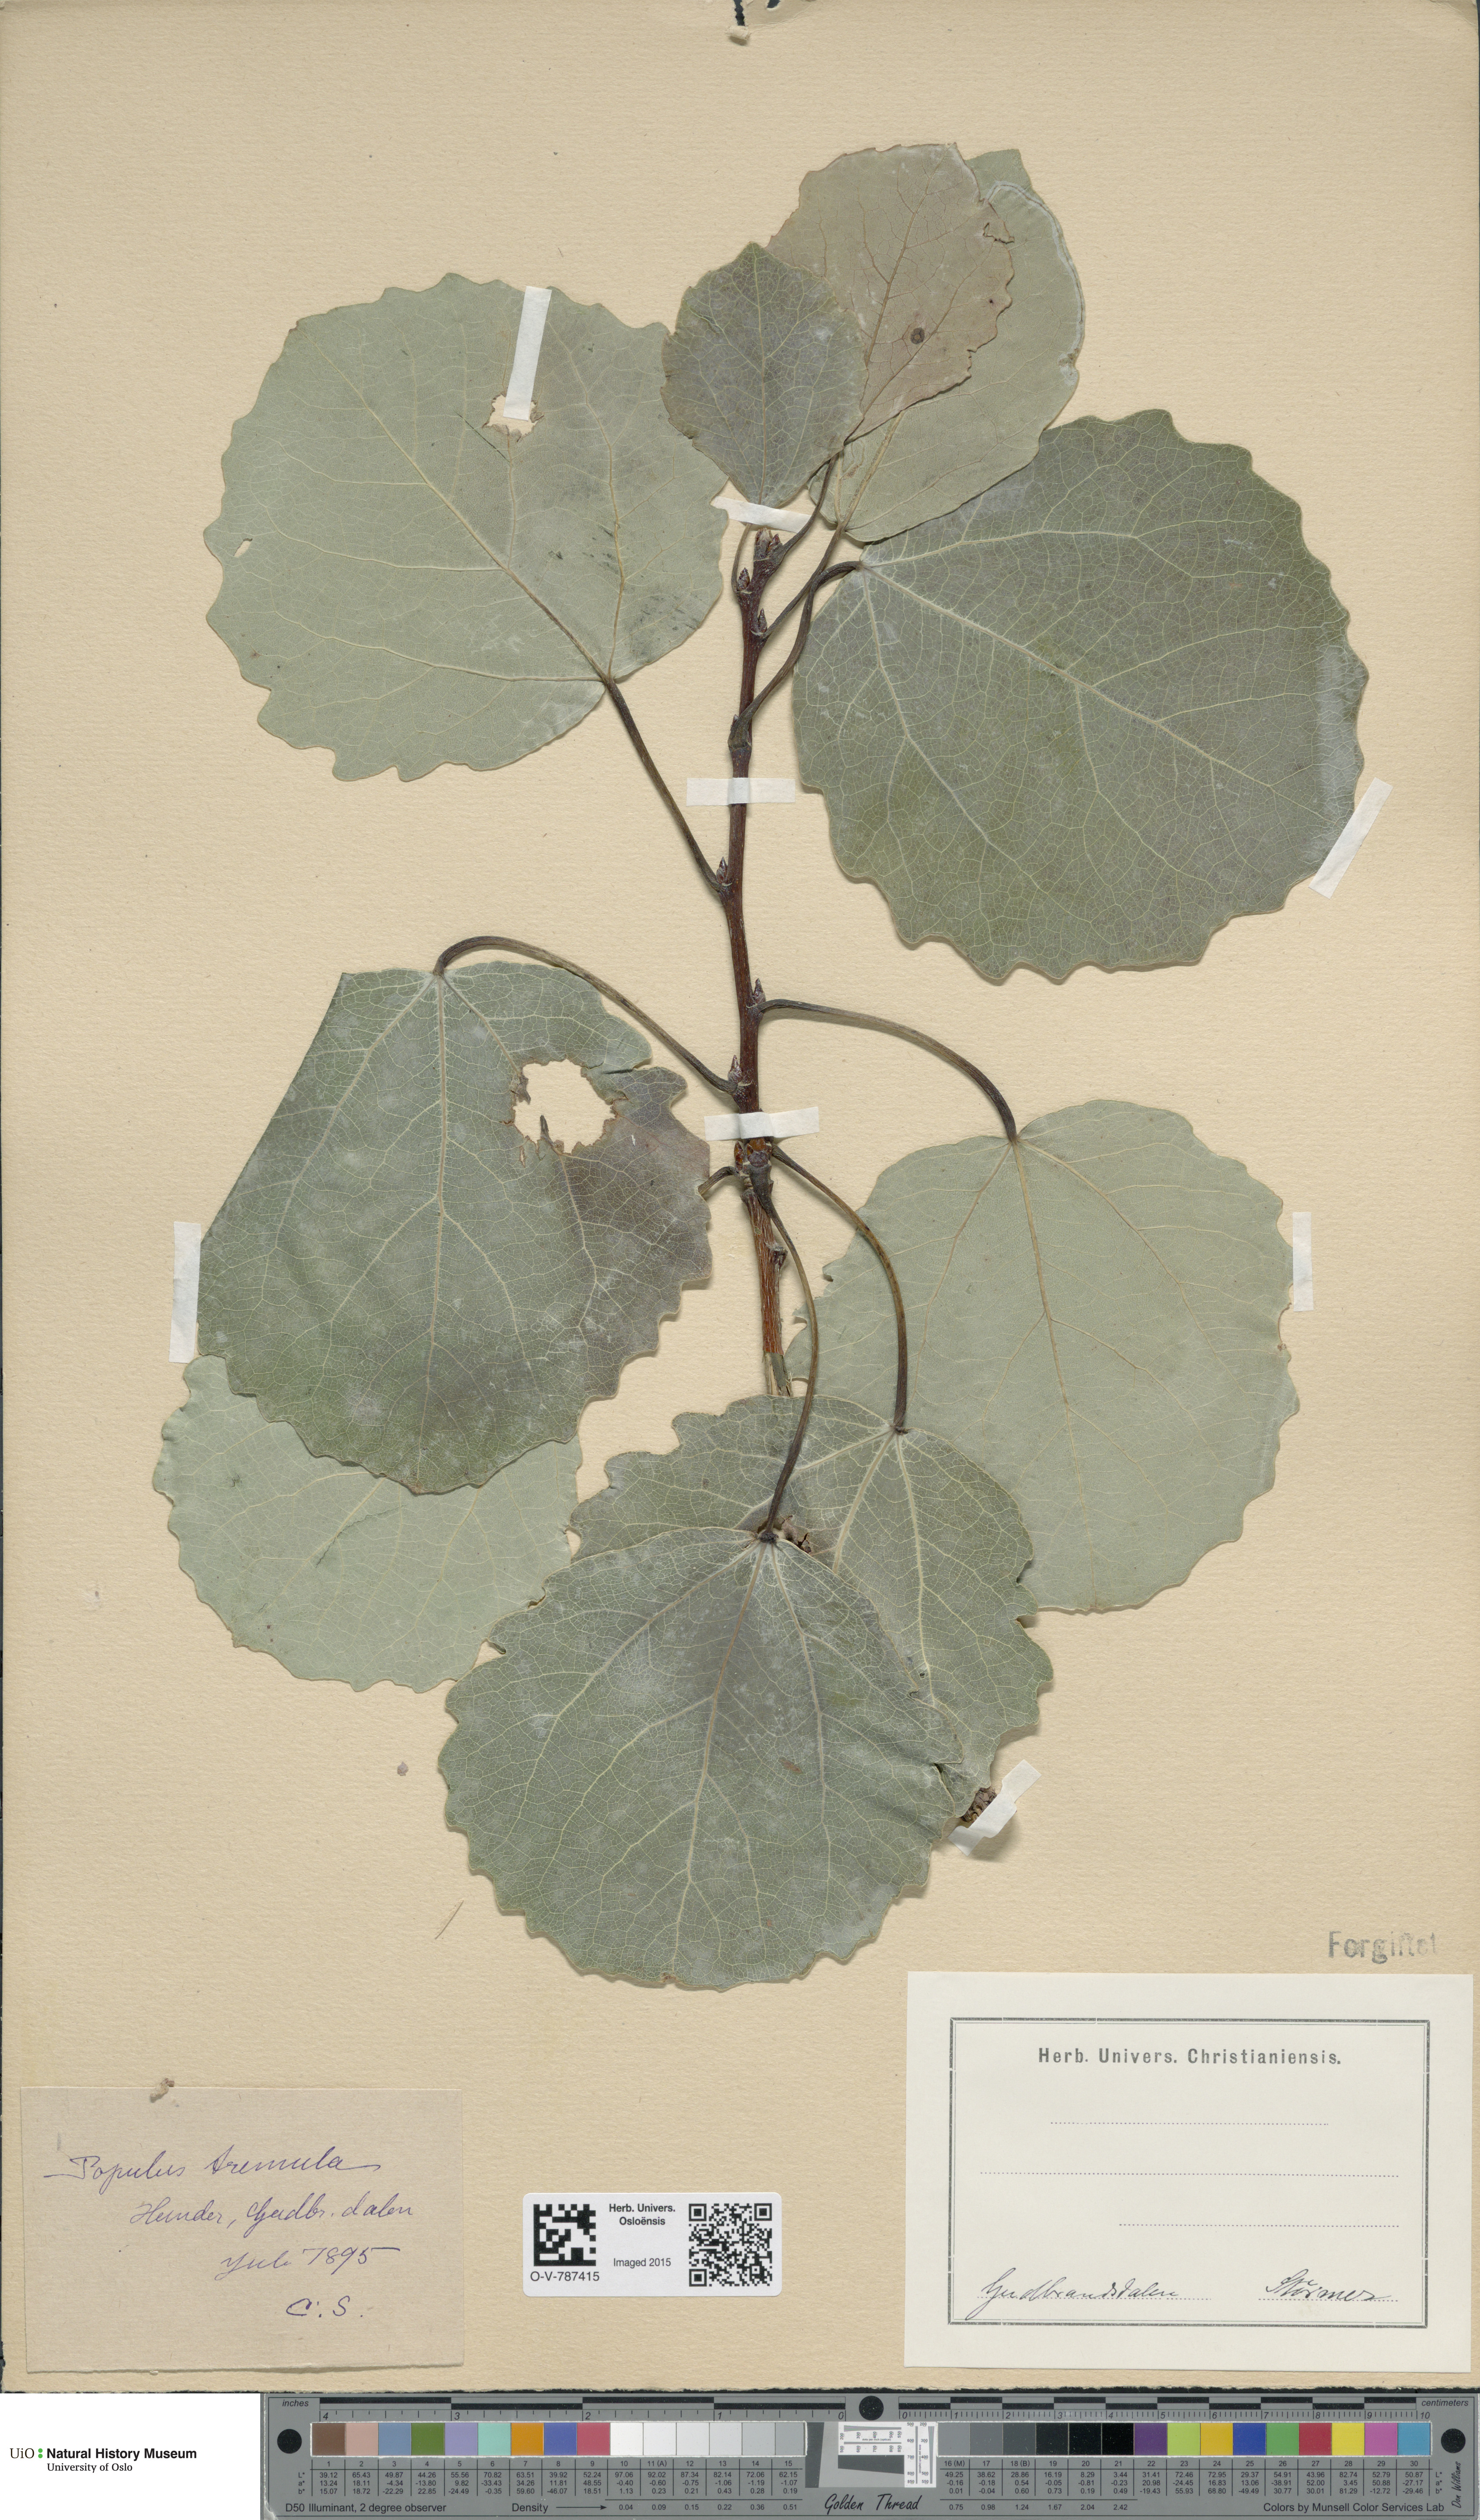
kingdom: Plantae
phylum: Tracheophyta
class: Magnoliopsida
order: Malpighiales
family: Salicaceae
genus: Populus
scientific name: Populus tremula
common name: European aspen
